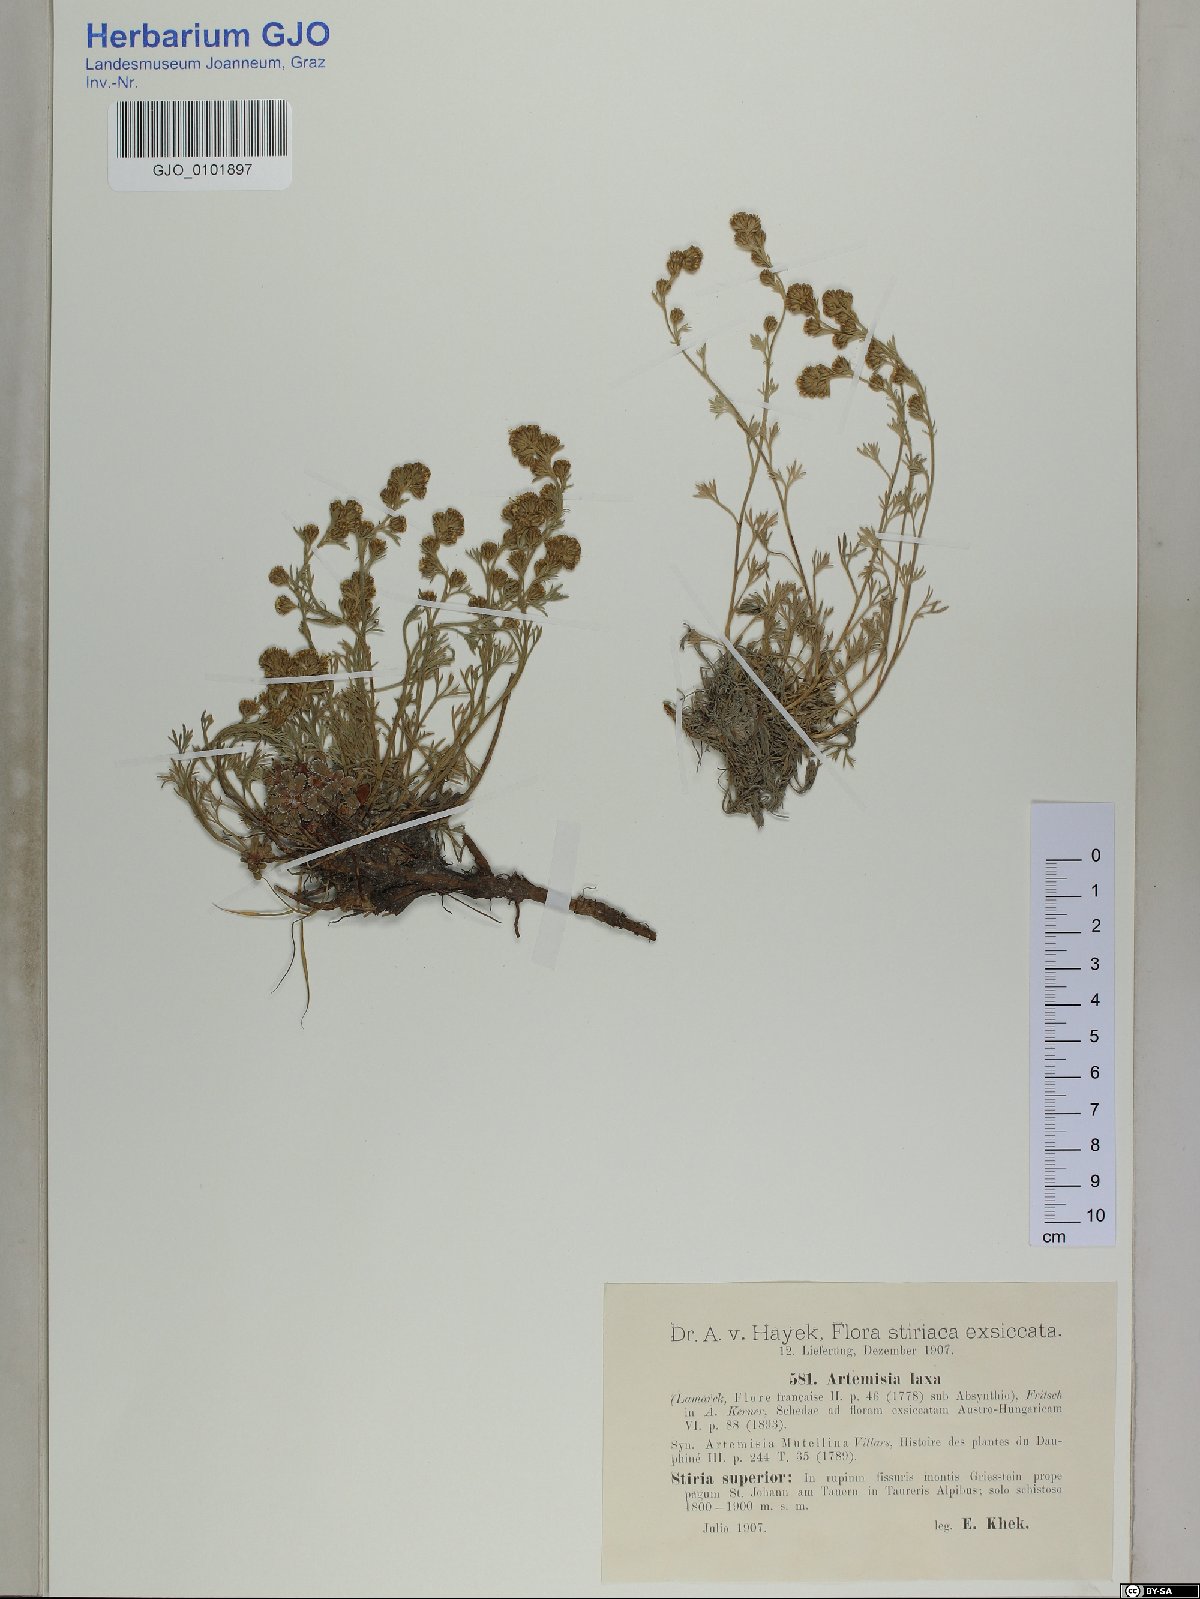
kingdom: Plantae
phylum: Tracheophyta
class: Magnoliopsida
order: Asterales
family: Asteraceae
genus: Artemisia
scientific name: Artemisia mutellina
